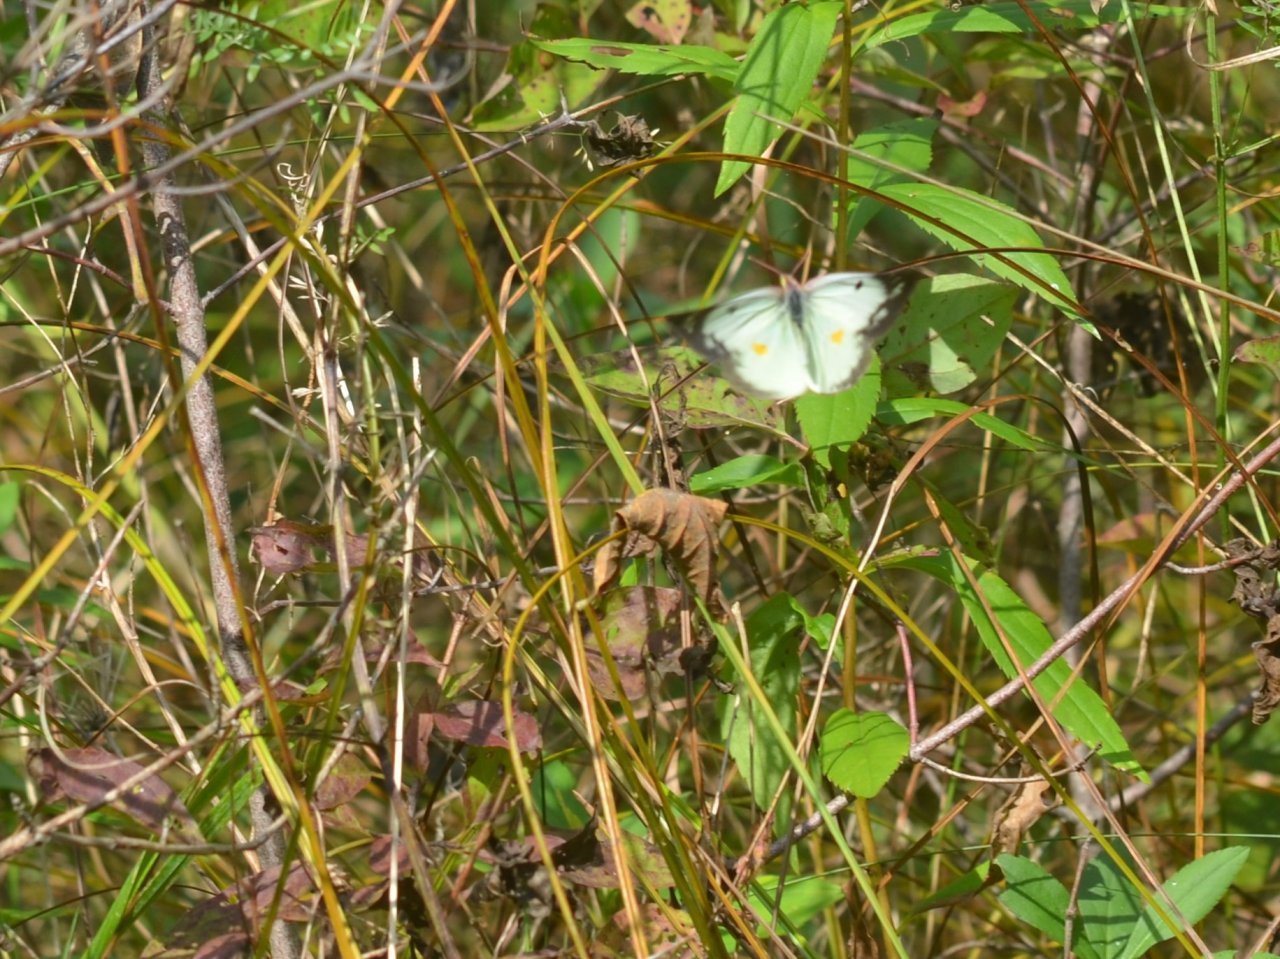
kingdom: Animalia
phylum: Arthropoda
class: Insecta
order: Lepidoptera
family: Pieridae
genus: Colias
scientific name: Colias philodice
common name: Clouded Sulphur
